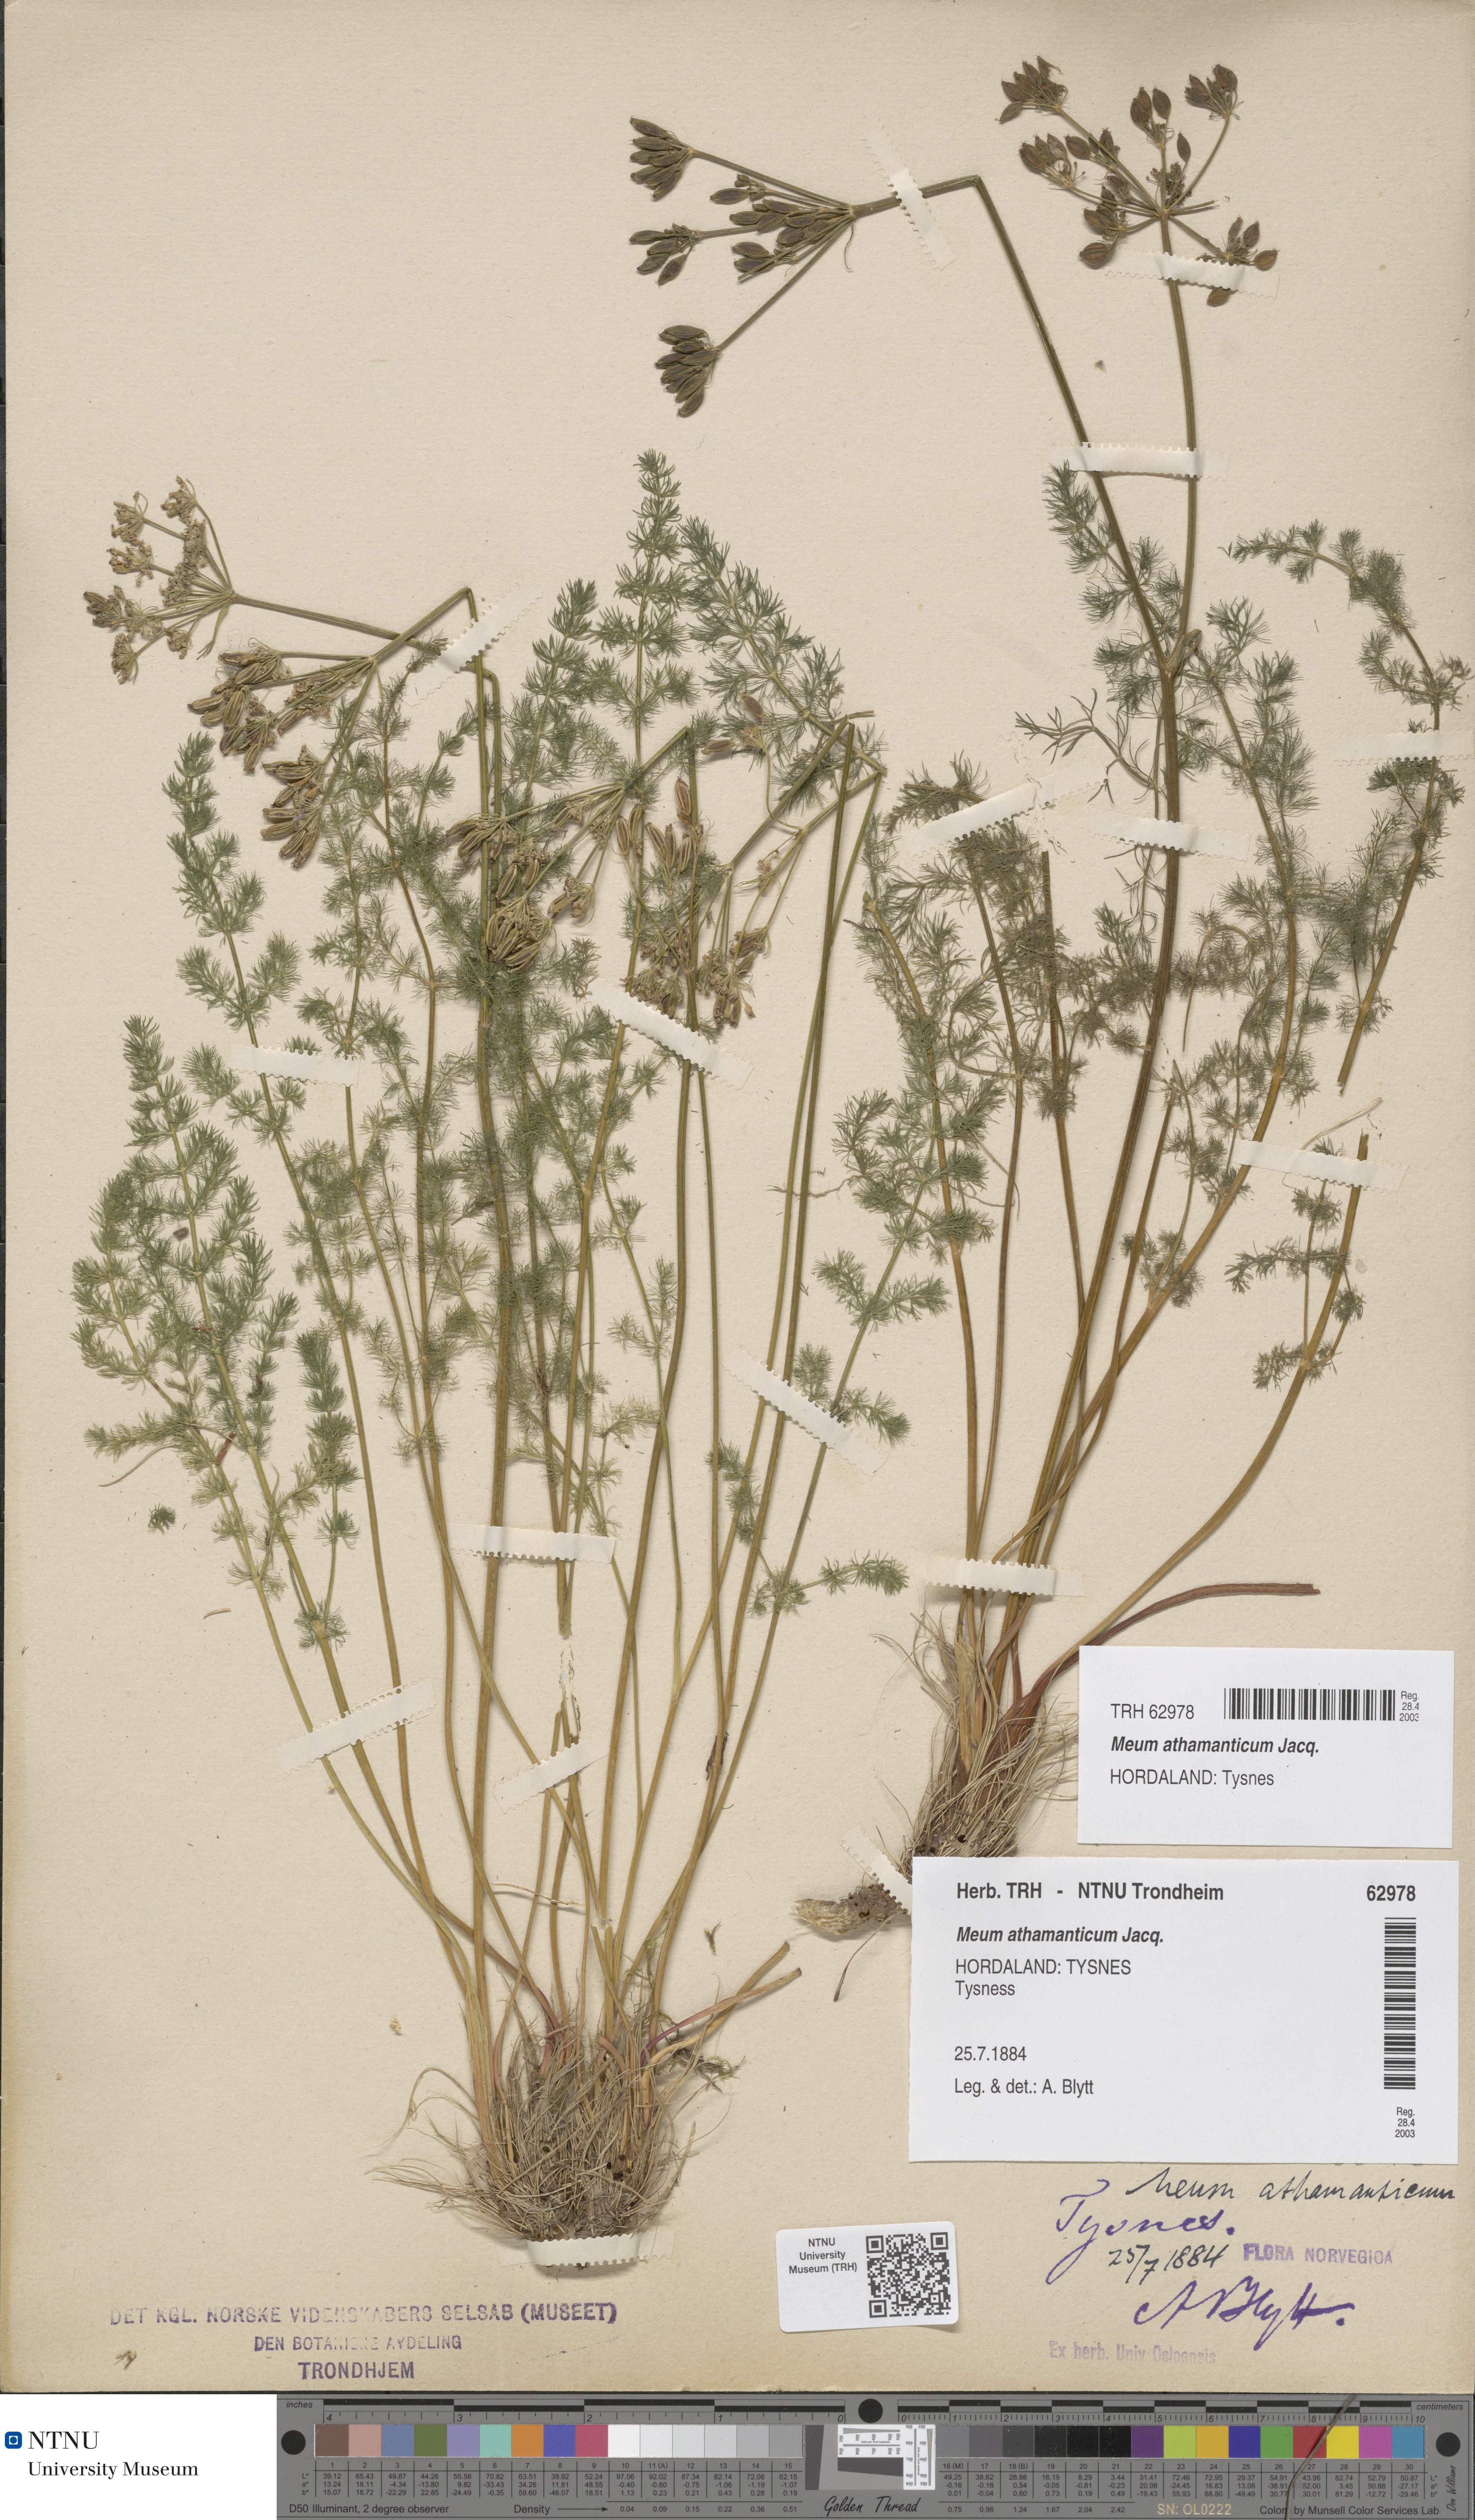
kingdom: Plantae
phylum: Tracheophyta
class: Magnoliopsida
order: Apiales
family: Apiaceae
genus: Meum
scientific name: Meum athamanticum
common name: Spignel
